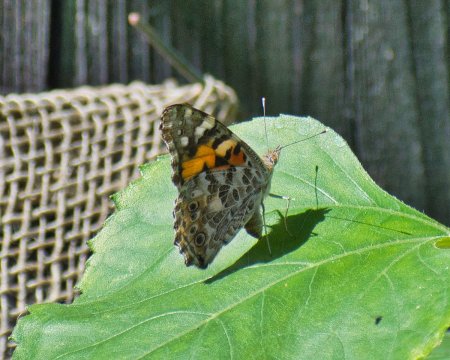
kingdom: Animalia
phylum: Arthropoda
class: Insecta
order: Lepidoptera
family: Nymphalidae
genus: Vanessa
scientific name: Vanessa cardui
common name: Painted Lady
